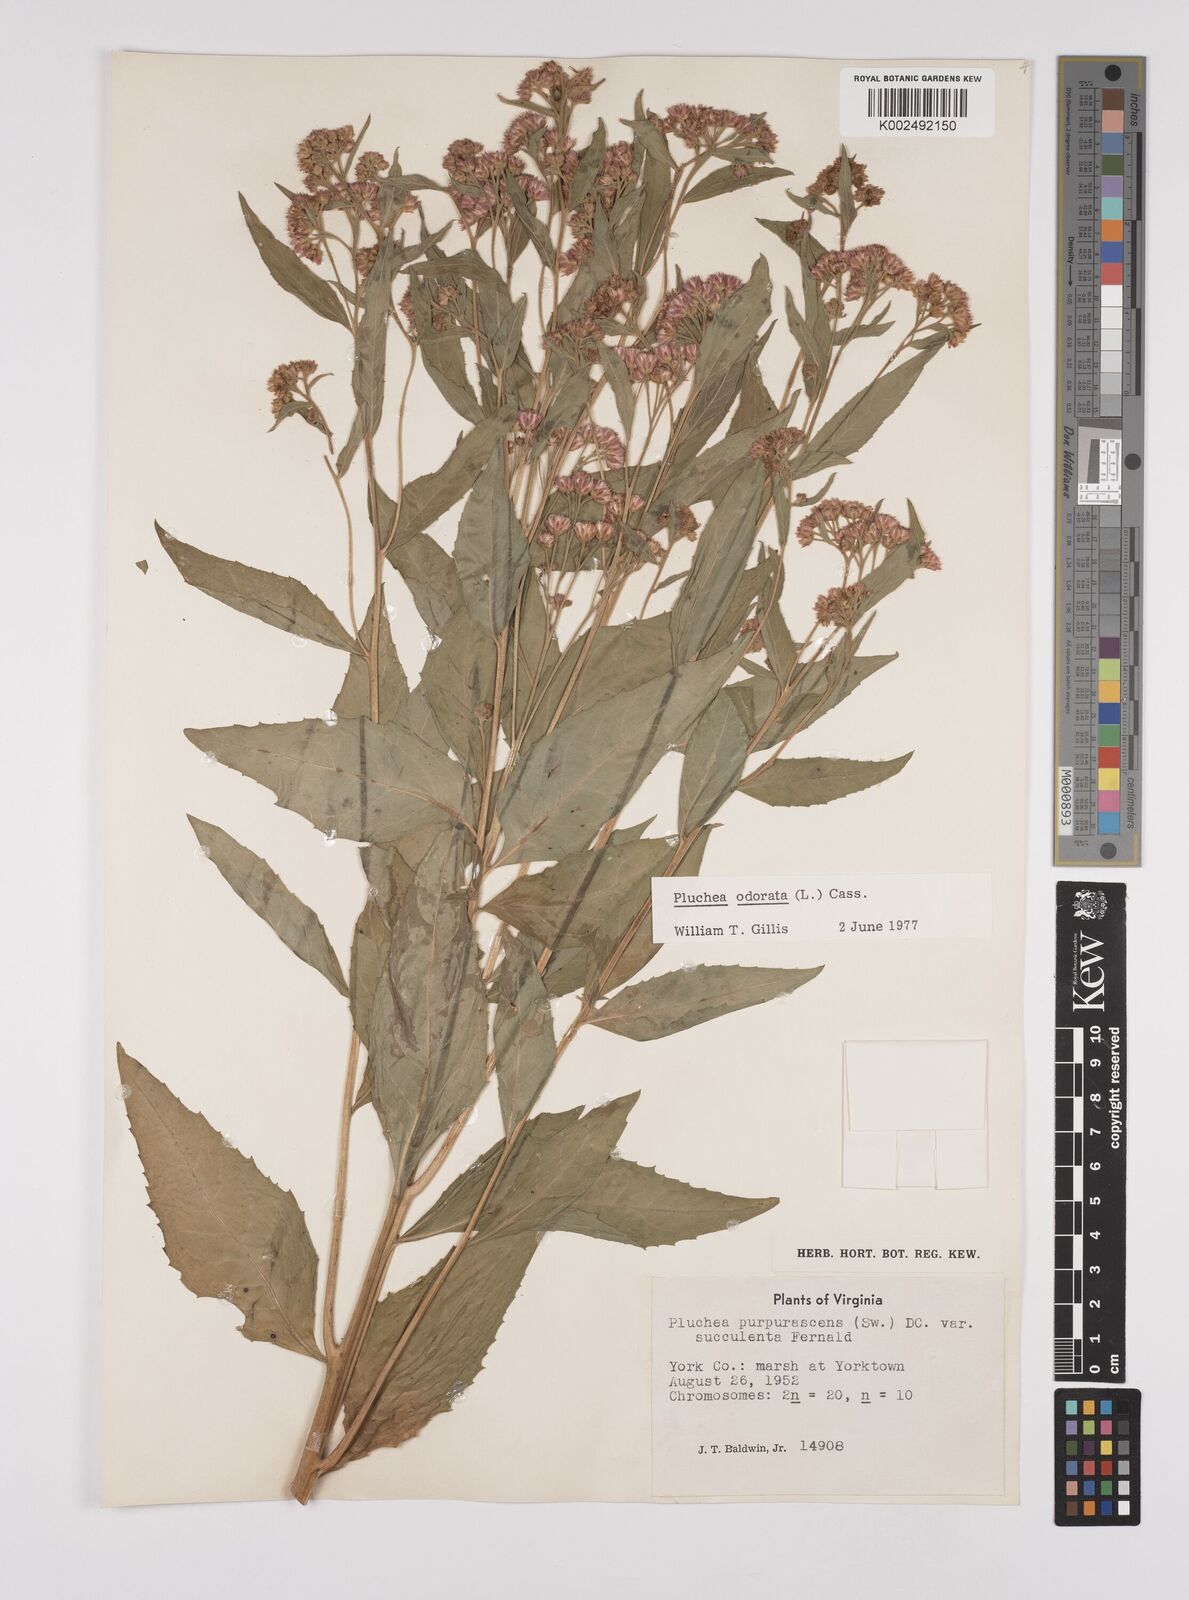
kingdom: Plantae
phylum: Tracheophyta
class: Magnoliopsida
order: Asterales
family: Asteraceae
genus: Pluchea
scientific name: Pluchea odorata
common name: Saltmarsh fleabane
